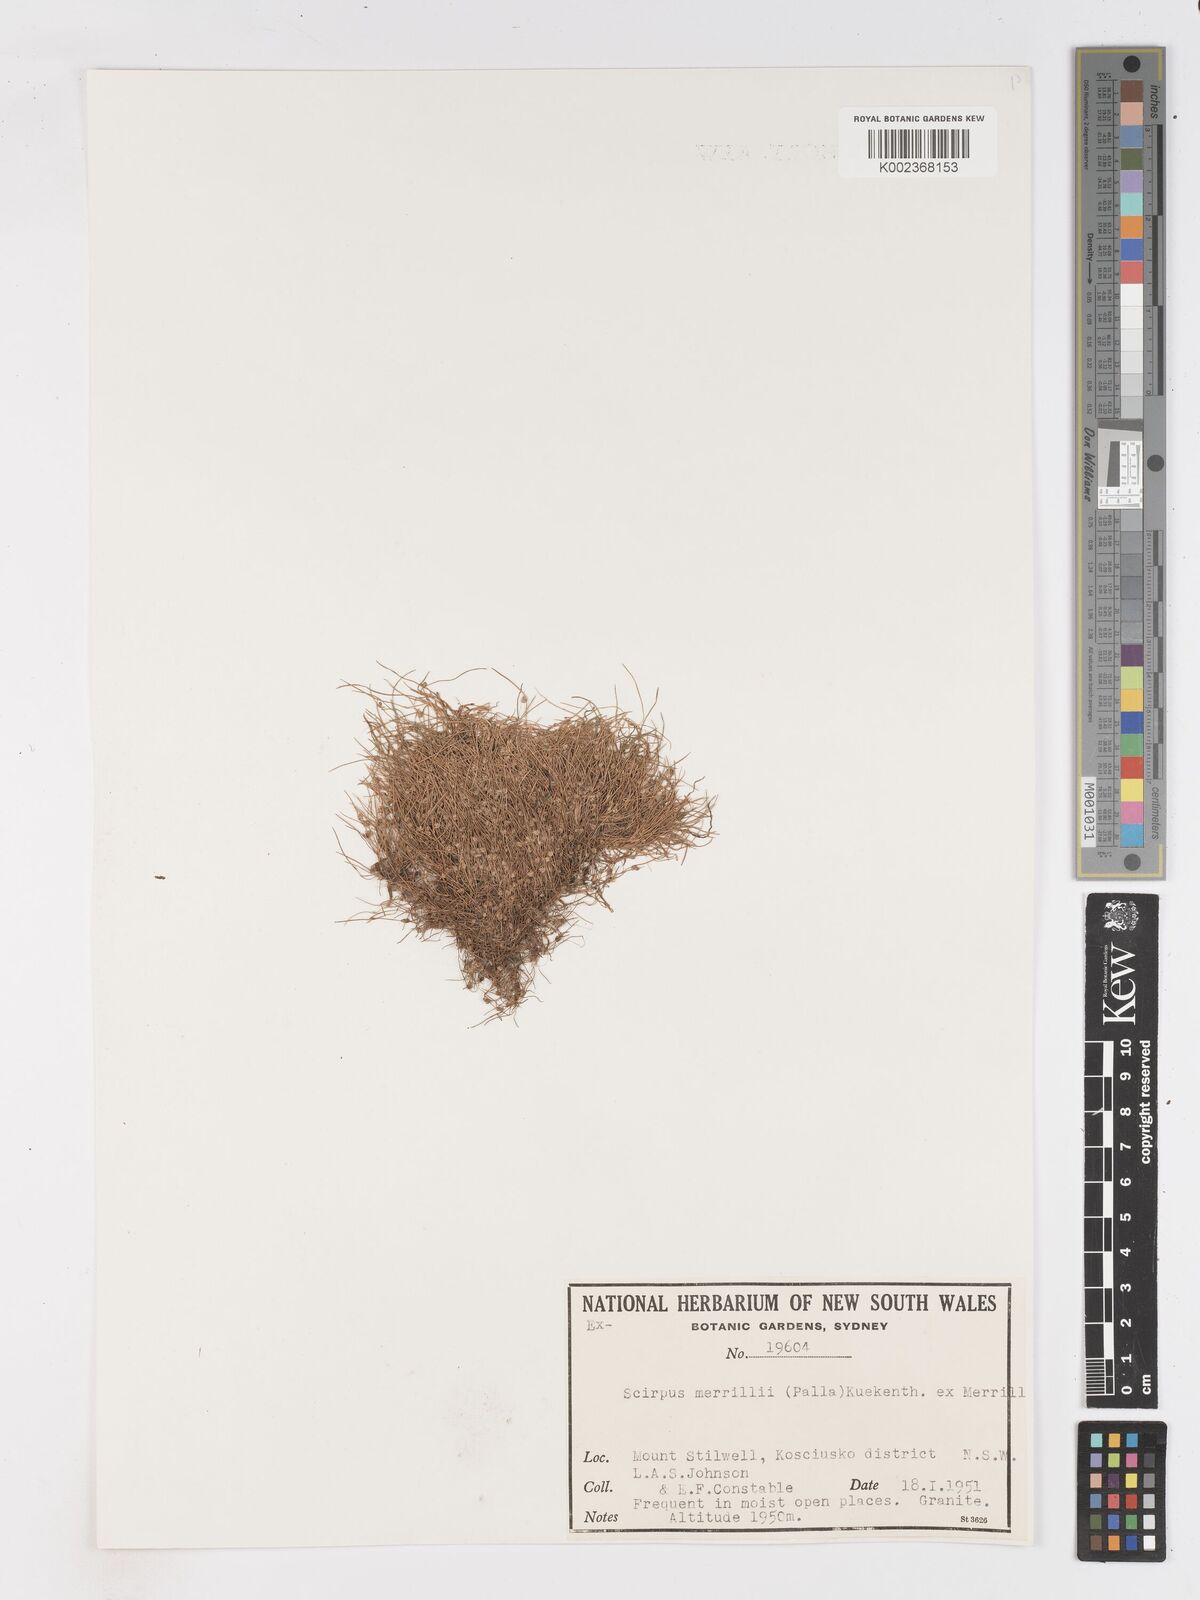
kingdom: Plantae
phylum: Tracheophyta
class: Liliopsida
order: Poales
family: Cyperaceae
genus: Isolepis
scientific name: Isolepis subtilissima
